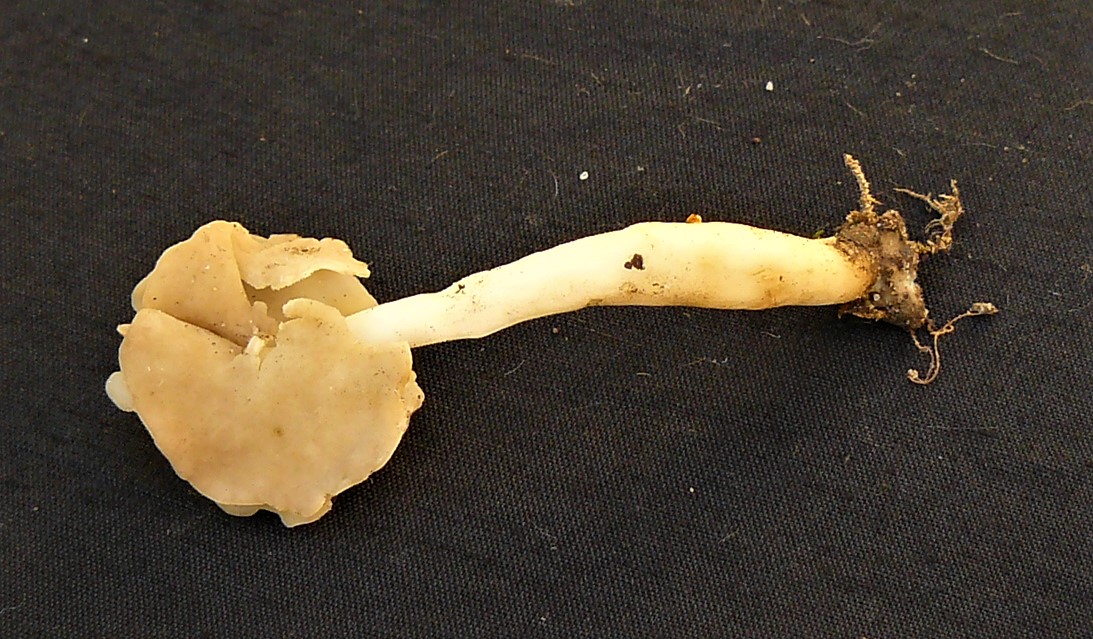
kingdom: Fungi
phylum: Ascomycota
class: Pezizomycetes
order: Pezizales
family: Helvellaceae
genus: Helvella
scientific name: Helvella elastica
